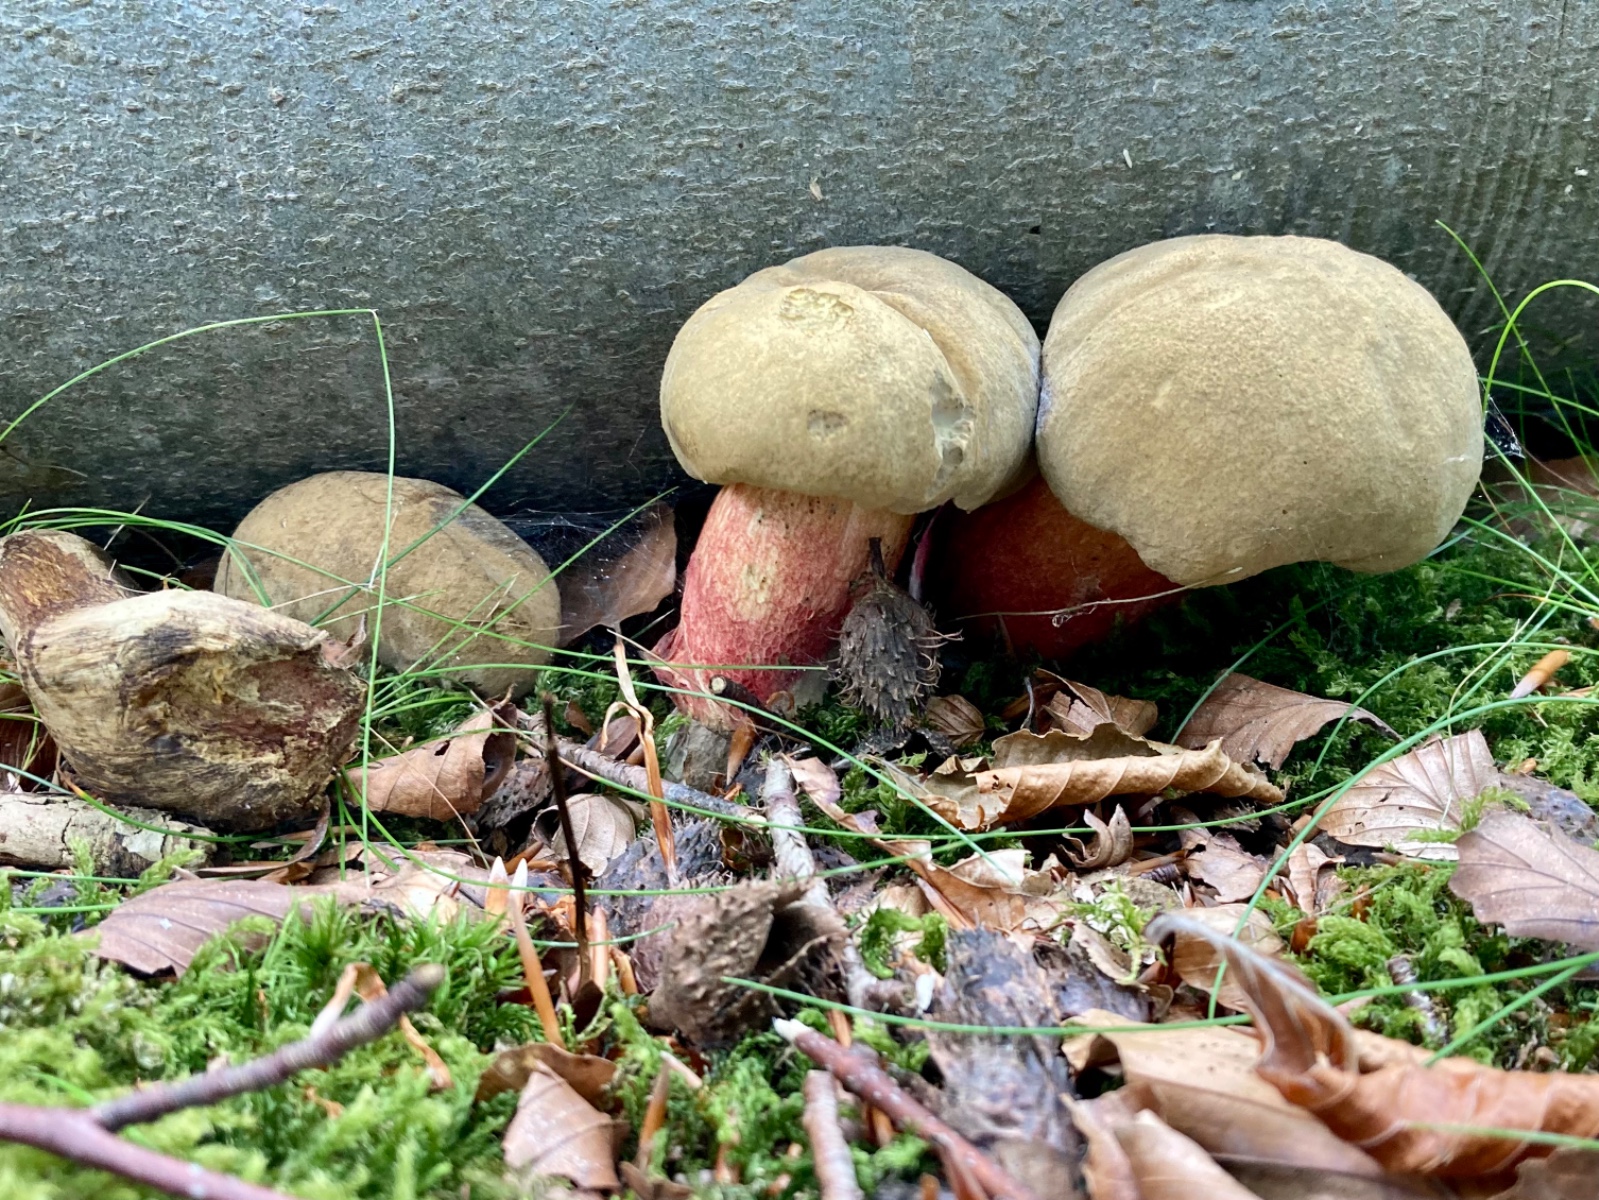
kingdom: Fungi
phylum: Basidiomycota
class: Agaricomycetes
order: Boletales
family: Boletaceae
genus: Caloboletus
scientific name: Caloboletus calopus
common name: skønfodet rørhat
